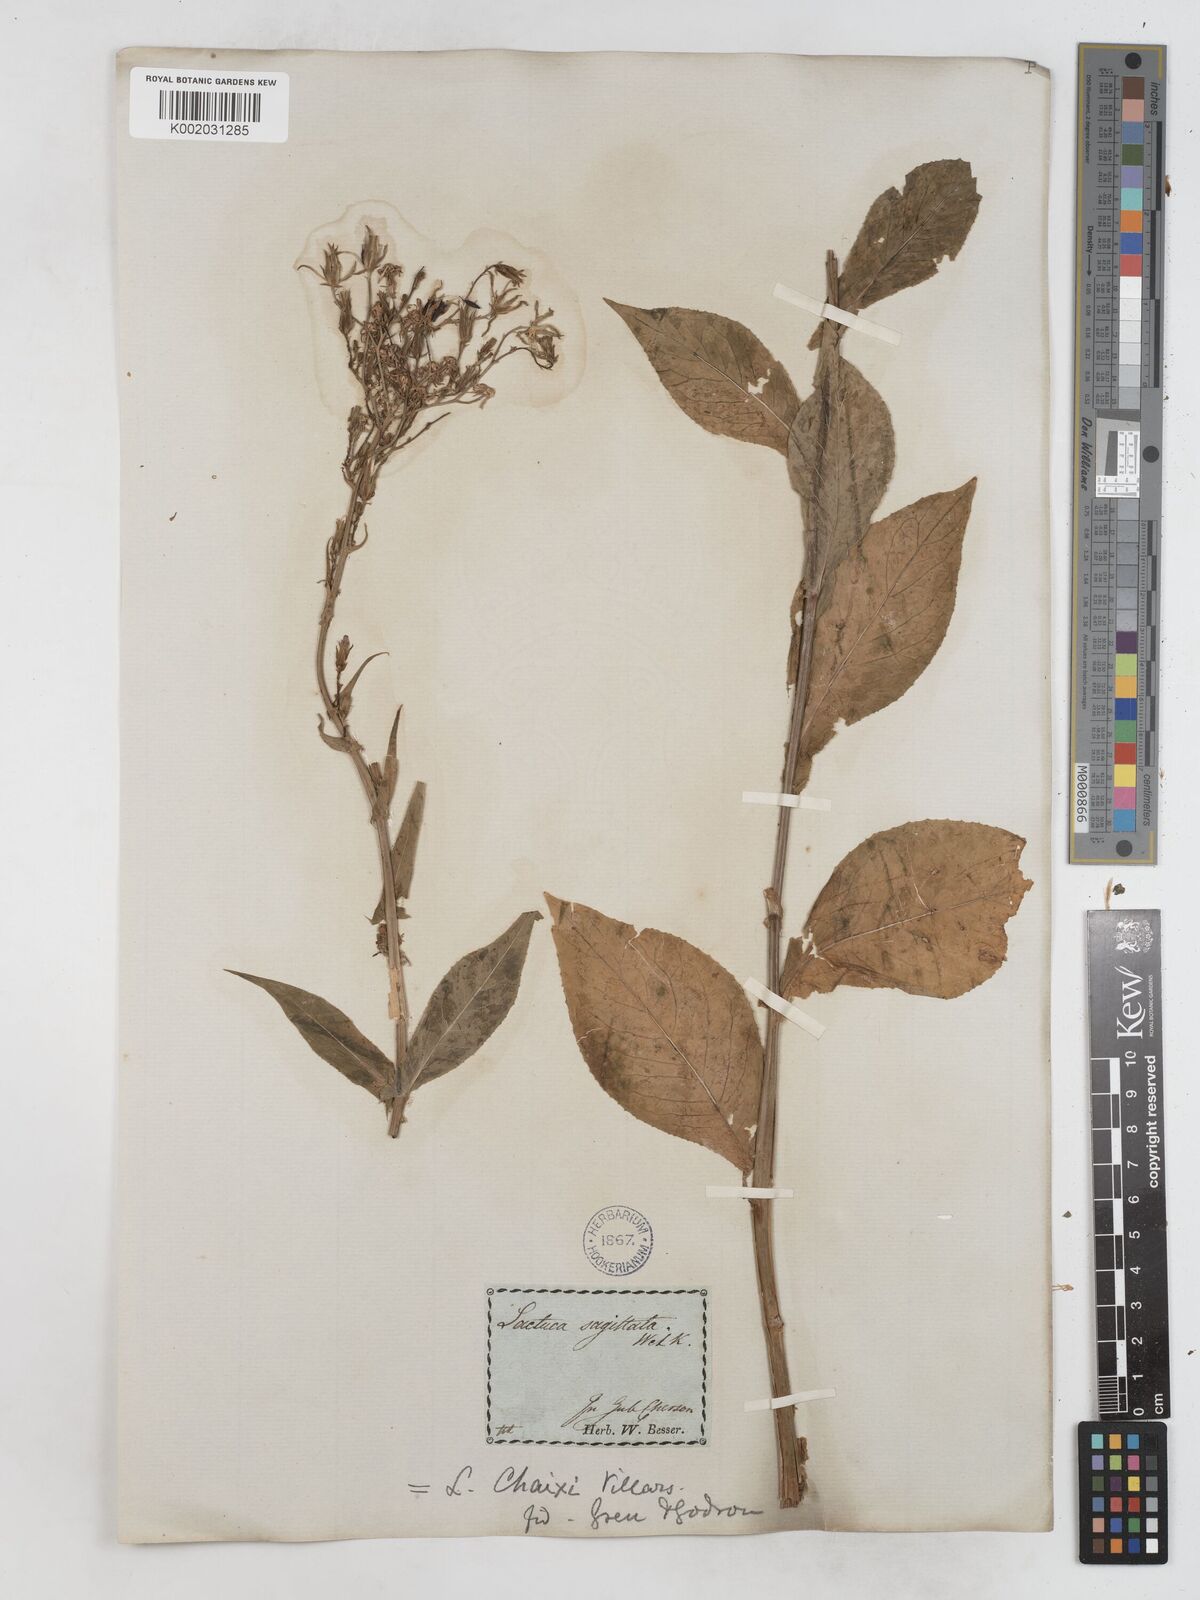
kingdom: Plantae
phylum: Tracheophyta
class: Magnoliopsida
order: Asterales
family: Asteraceae
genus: Lactuca
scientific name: Lactuca dolichophylla
